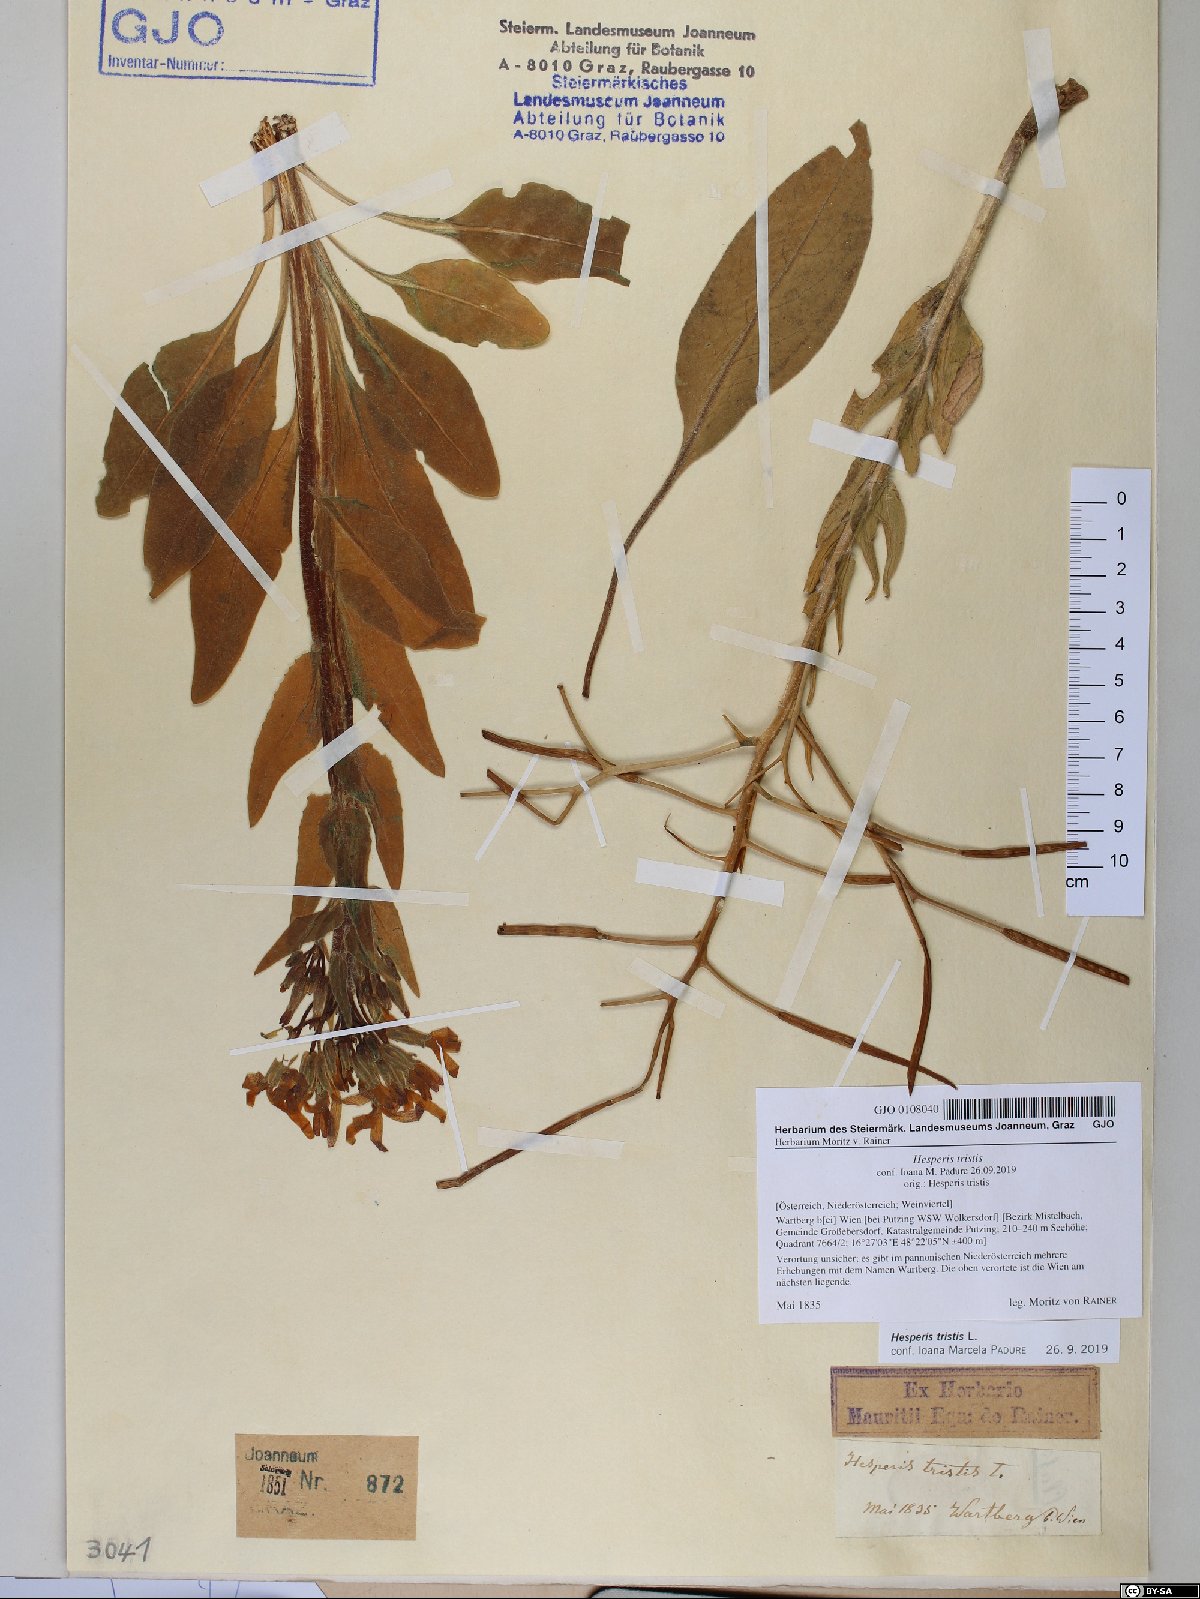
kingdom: Plantae
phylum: Tracheophyta
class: Magnoliopsida
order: Brassicales
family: Brassicaceae
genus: Hesperis
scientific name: Hesperis tristis
